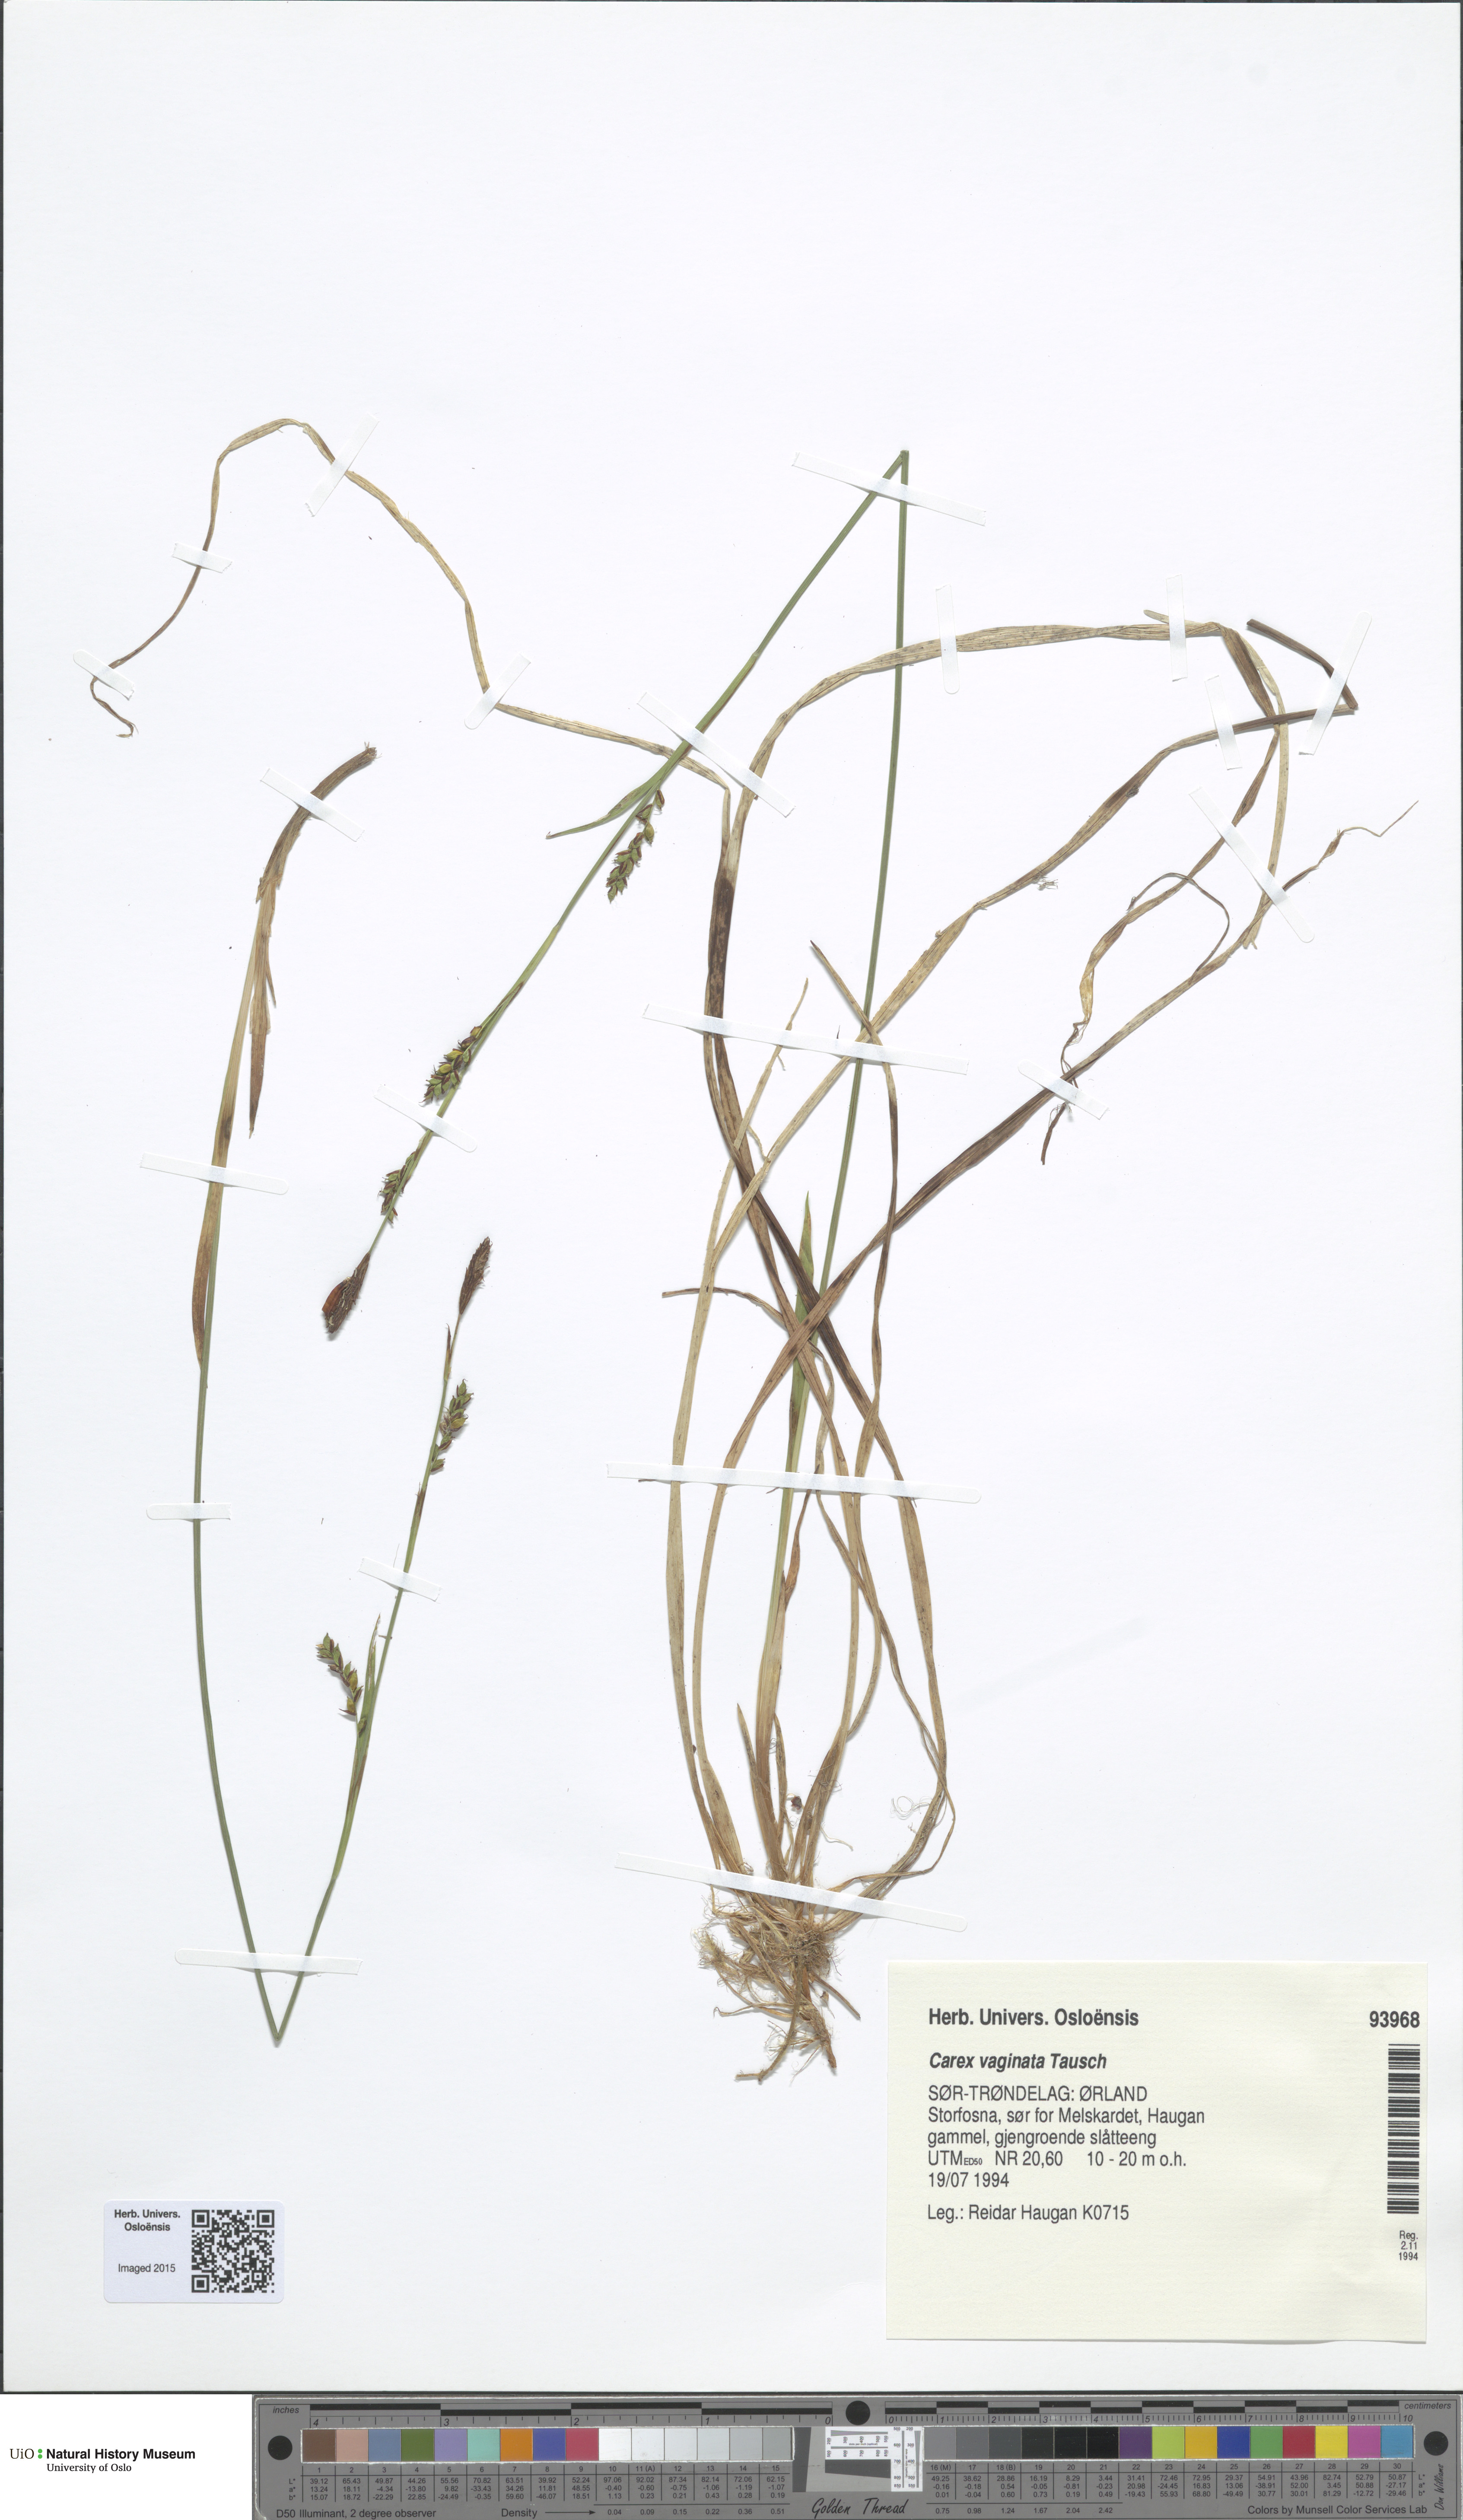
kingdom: Plantae
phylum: Tracheophyta
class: Liliopsida
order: Poales
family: Cyperaceae
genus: Carex
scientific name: Carex vaginata
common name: Sheathed sedge
